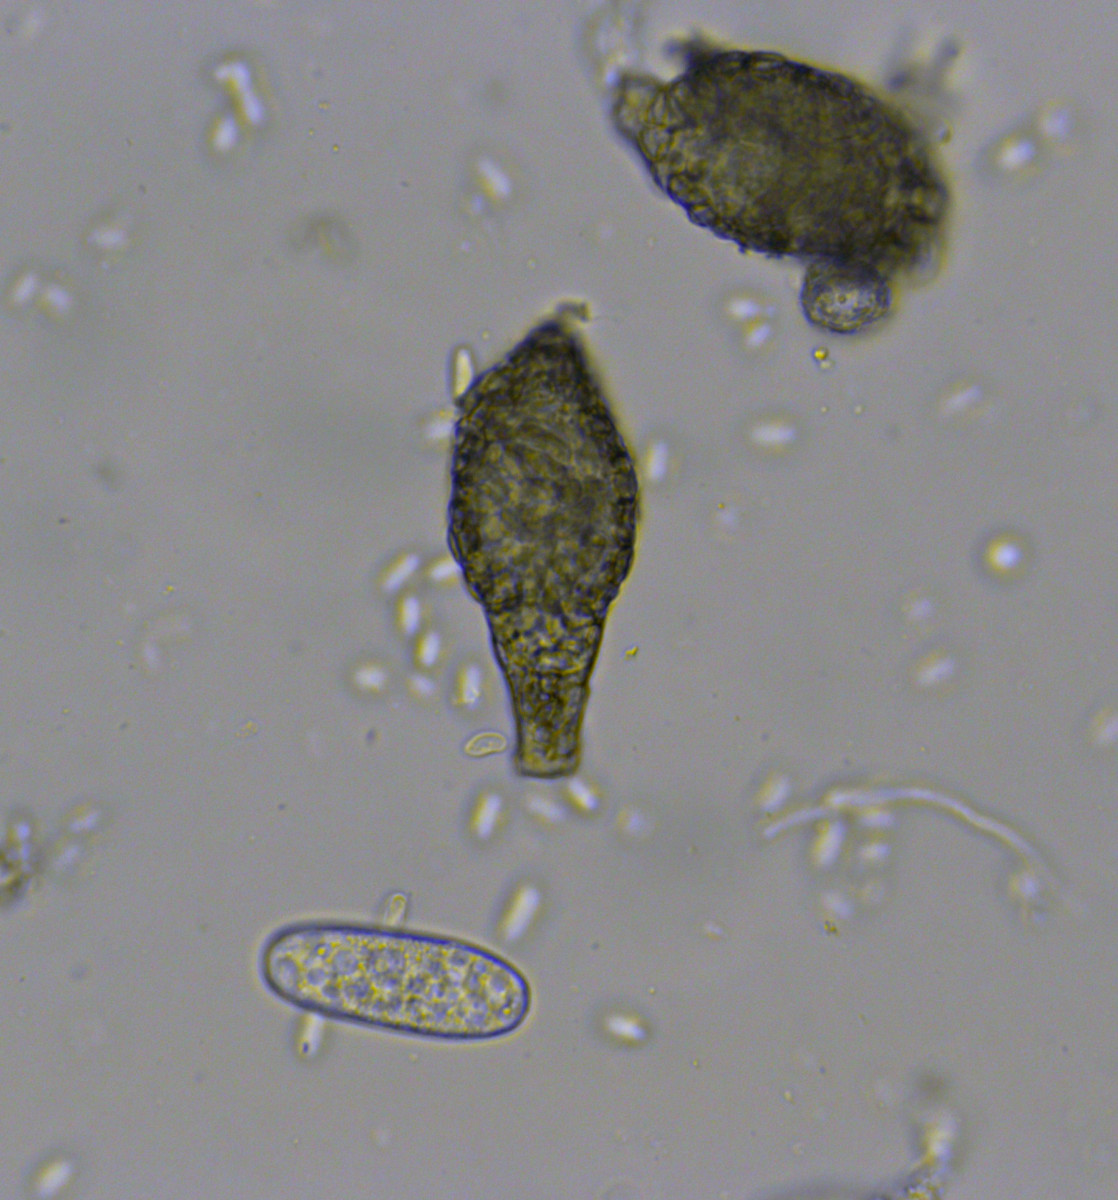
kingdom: Fungi
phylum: Ascomycota
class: Dothideomycetes
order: Pleosporales
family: Phaeosphaeriaceae
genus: Ampelomyces
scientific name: Ampelomyces quisqualis
